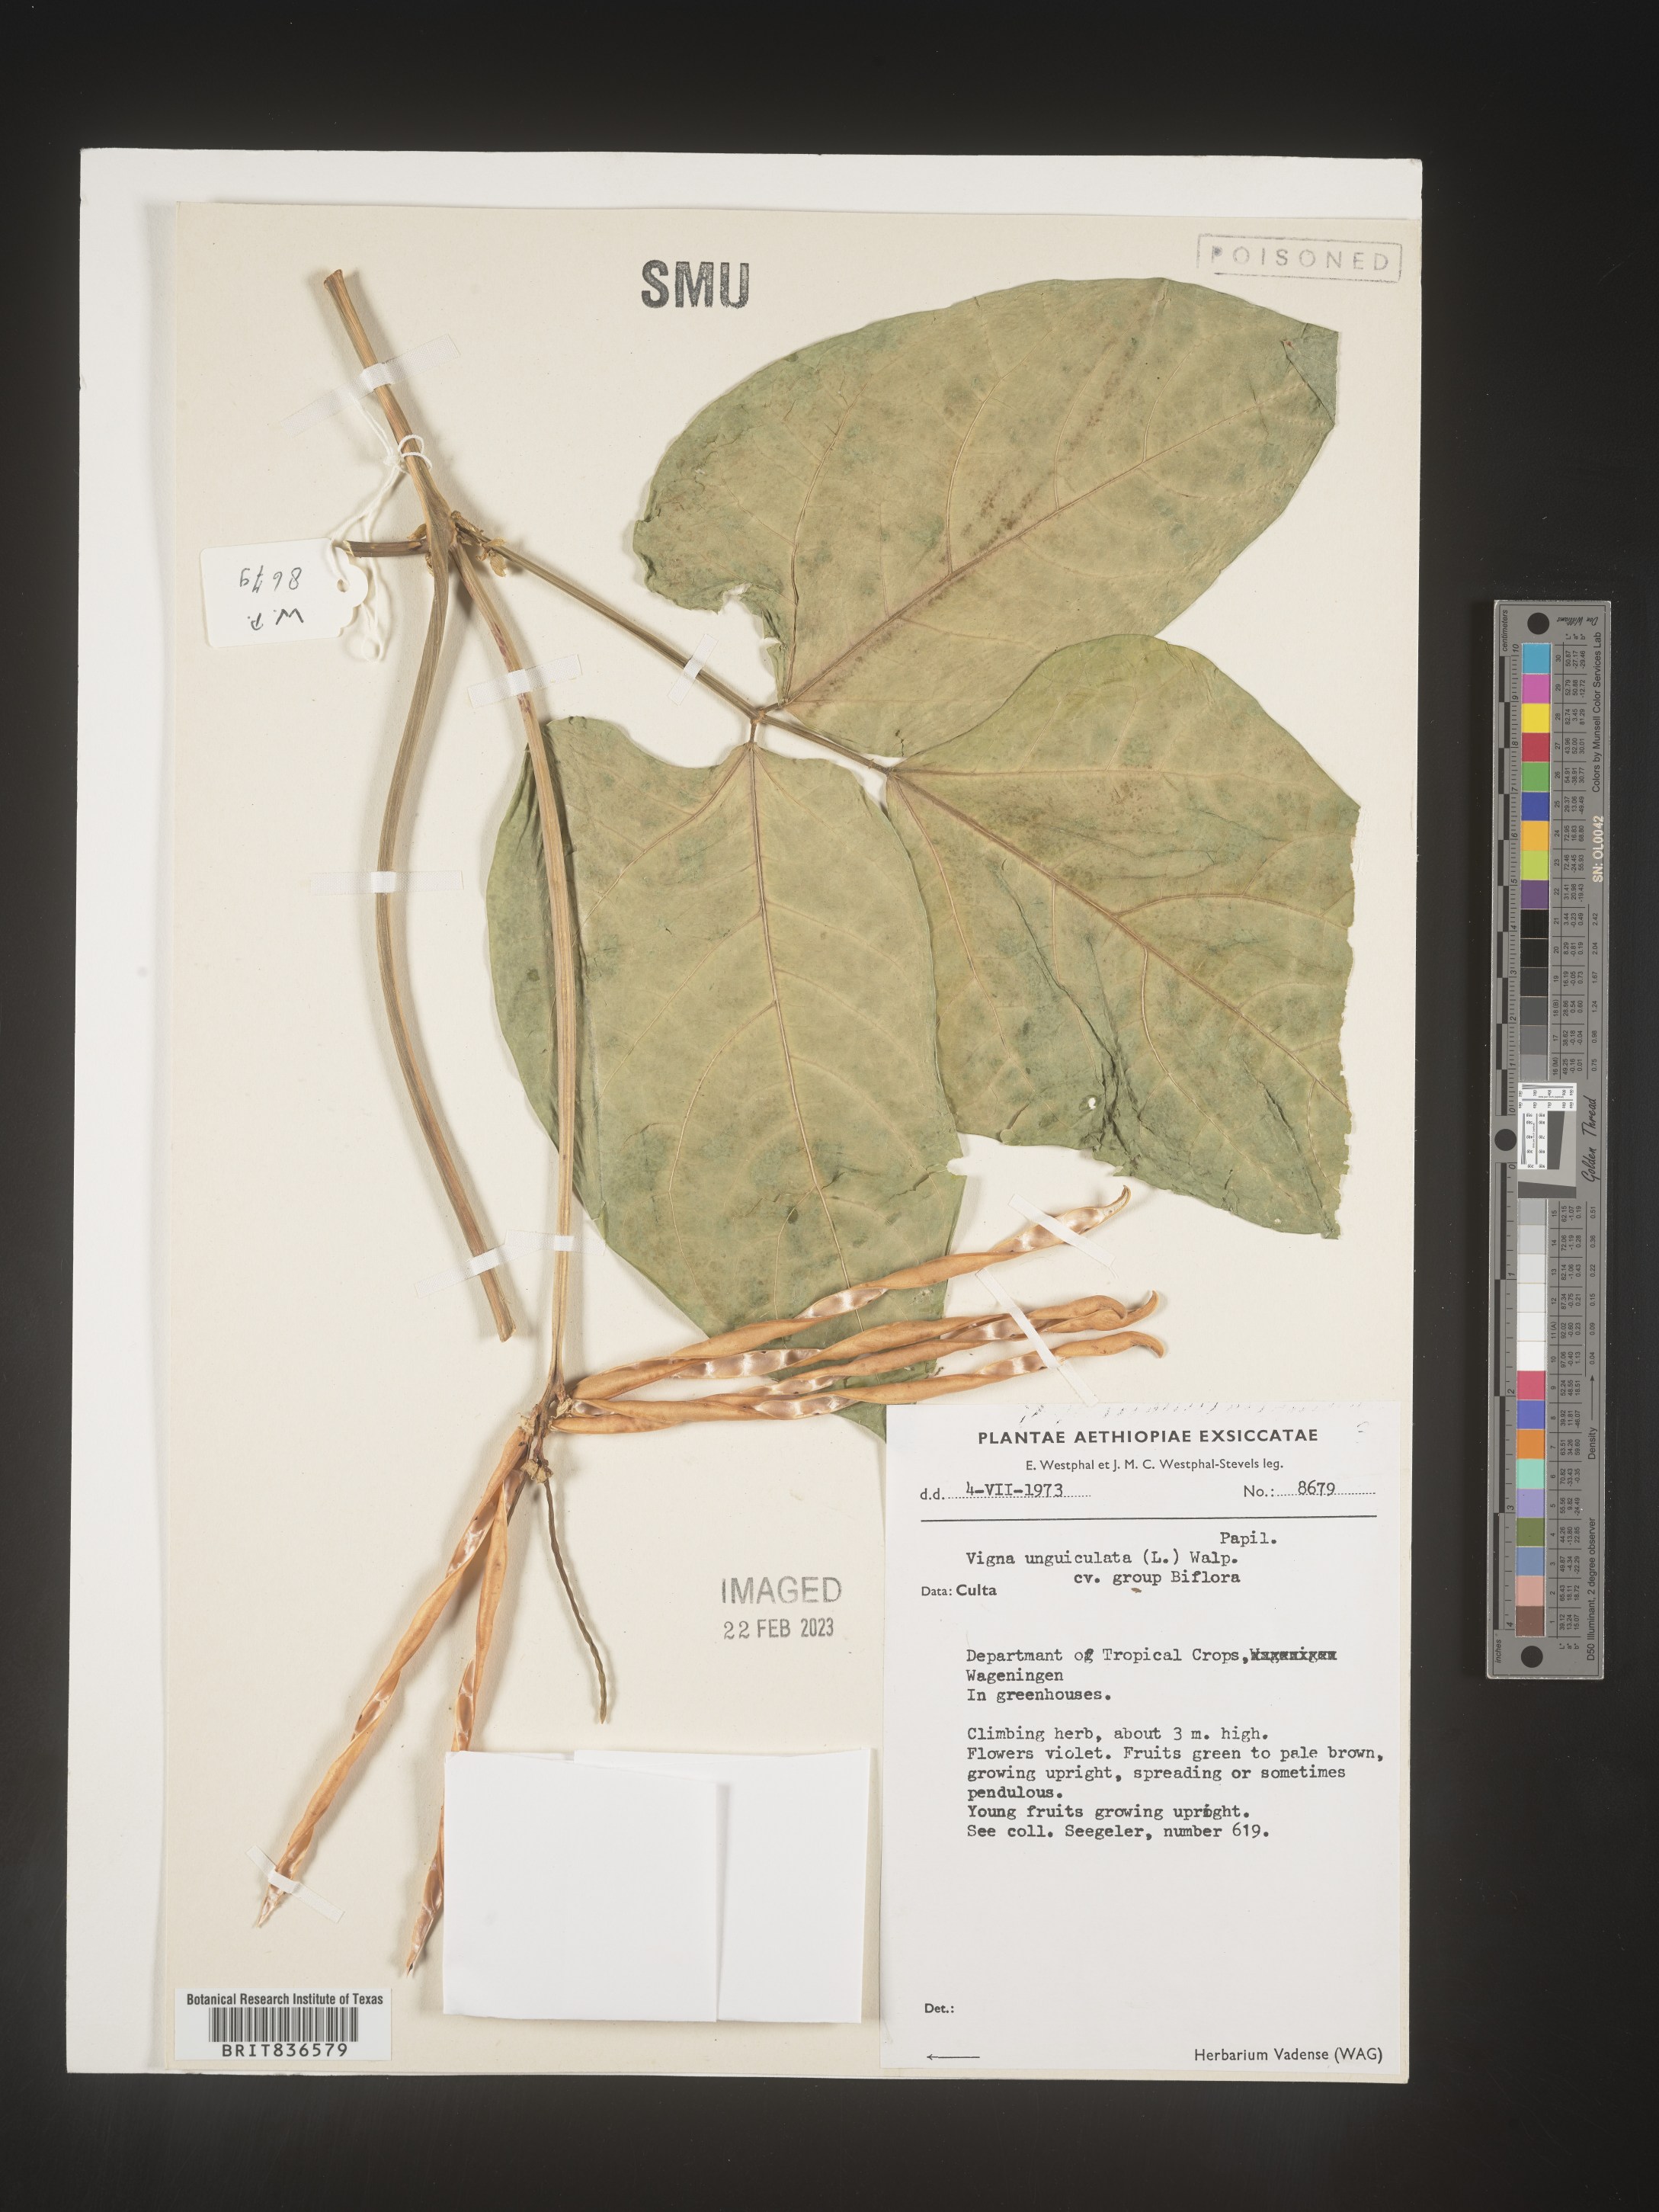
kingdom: Plantae
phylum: Tracheophyta
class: Magnoliopsida
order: Fabales
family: Fabaceae
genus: Vigna
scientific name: Vigna
